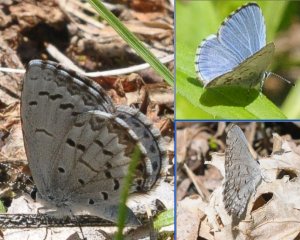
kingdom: Animalia
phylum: Arthropoda
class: Insecta
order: Lepidoptera
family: Lycaenidae
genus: Celastrina
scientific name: Celastrina lucia
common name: Northern Spring Azure
